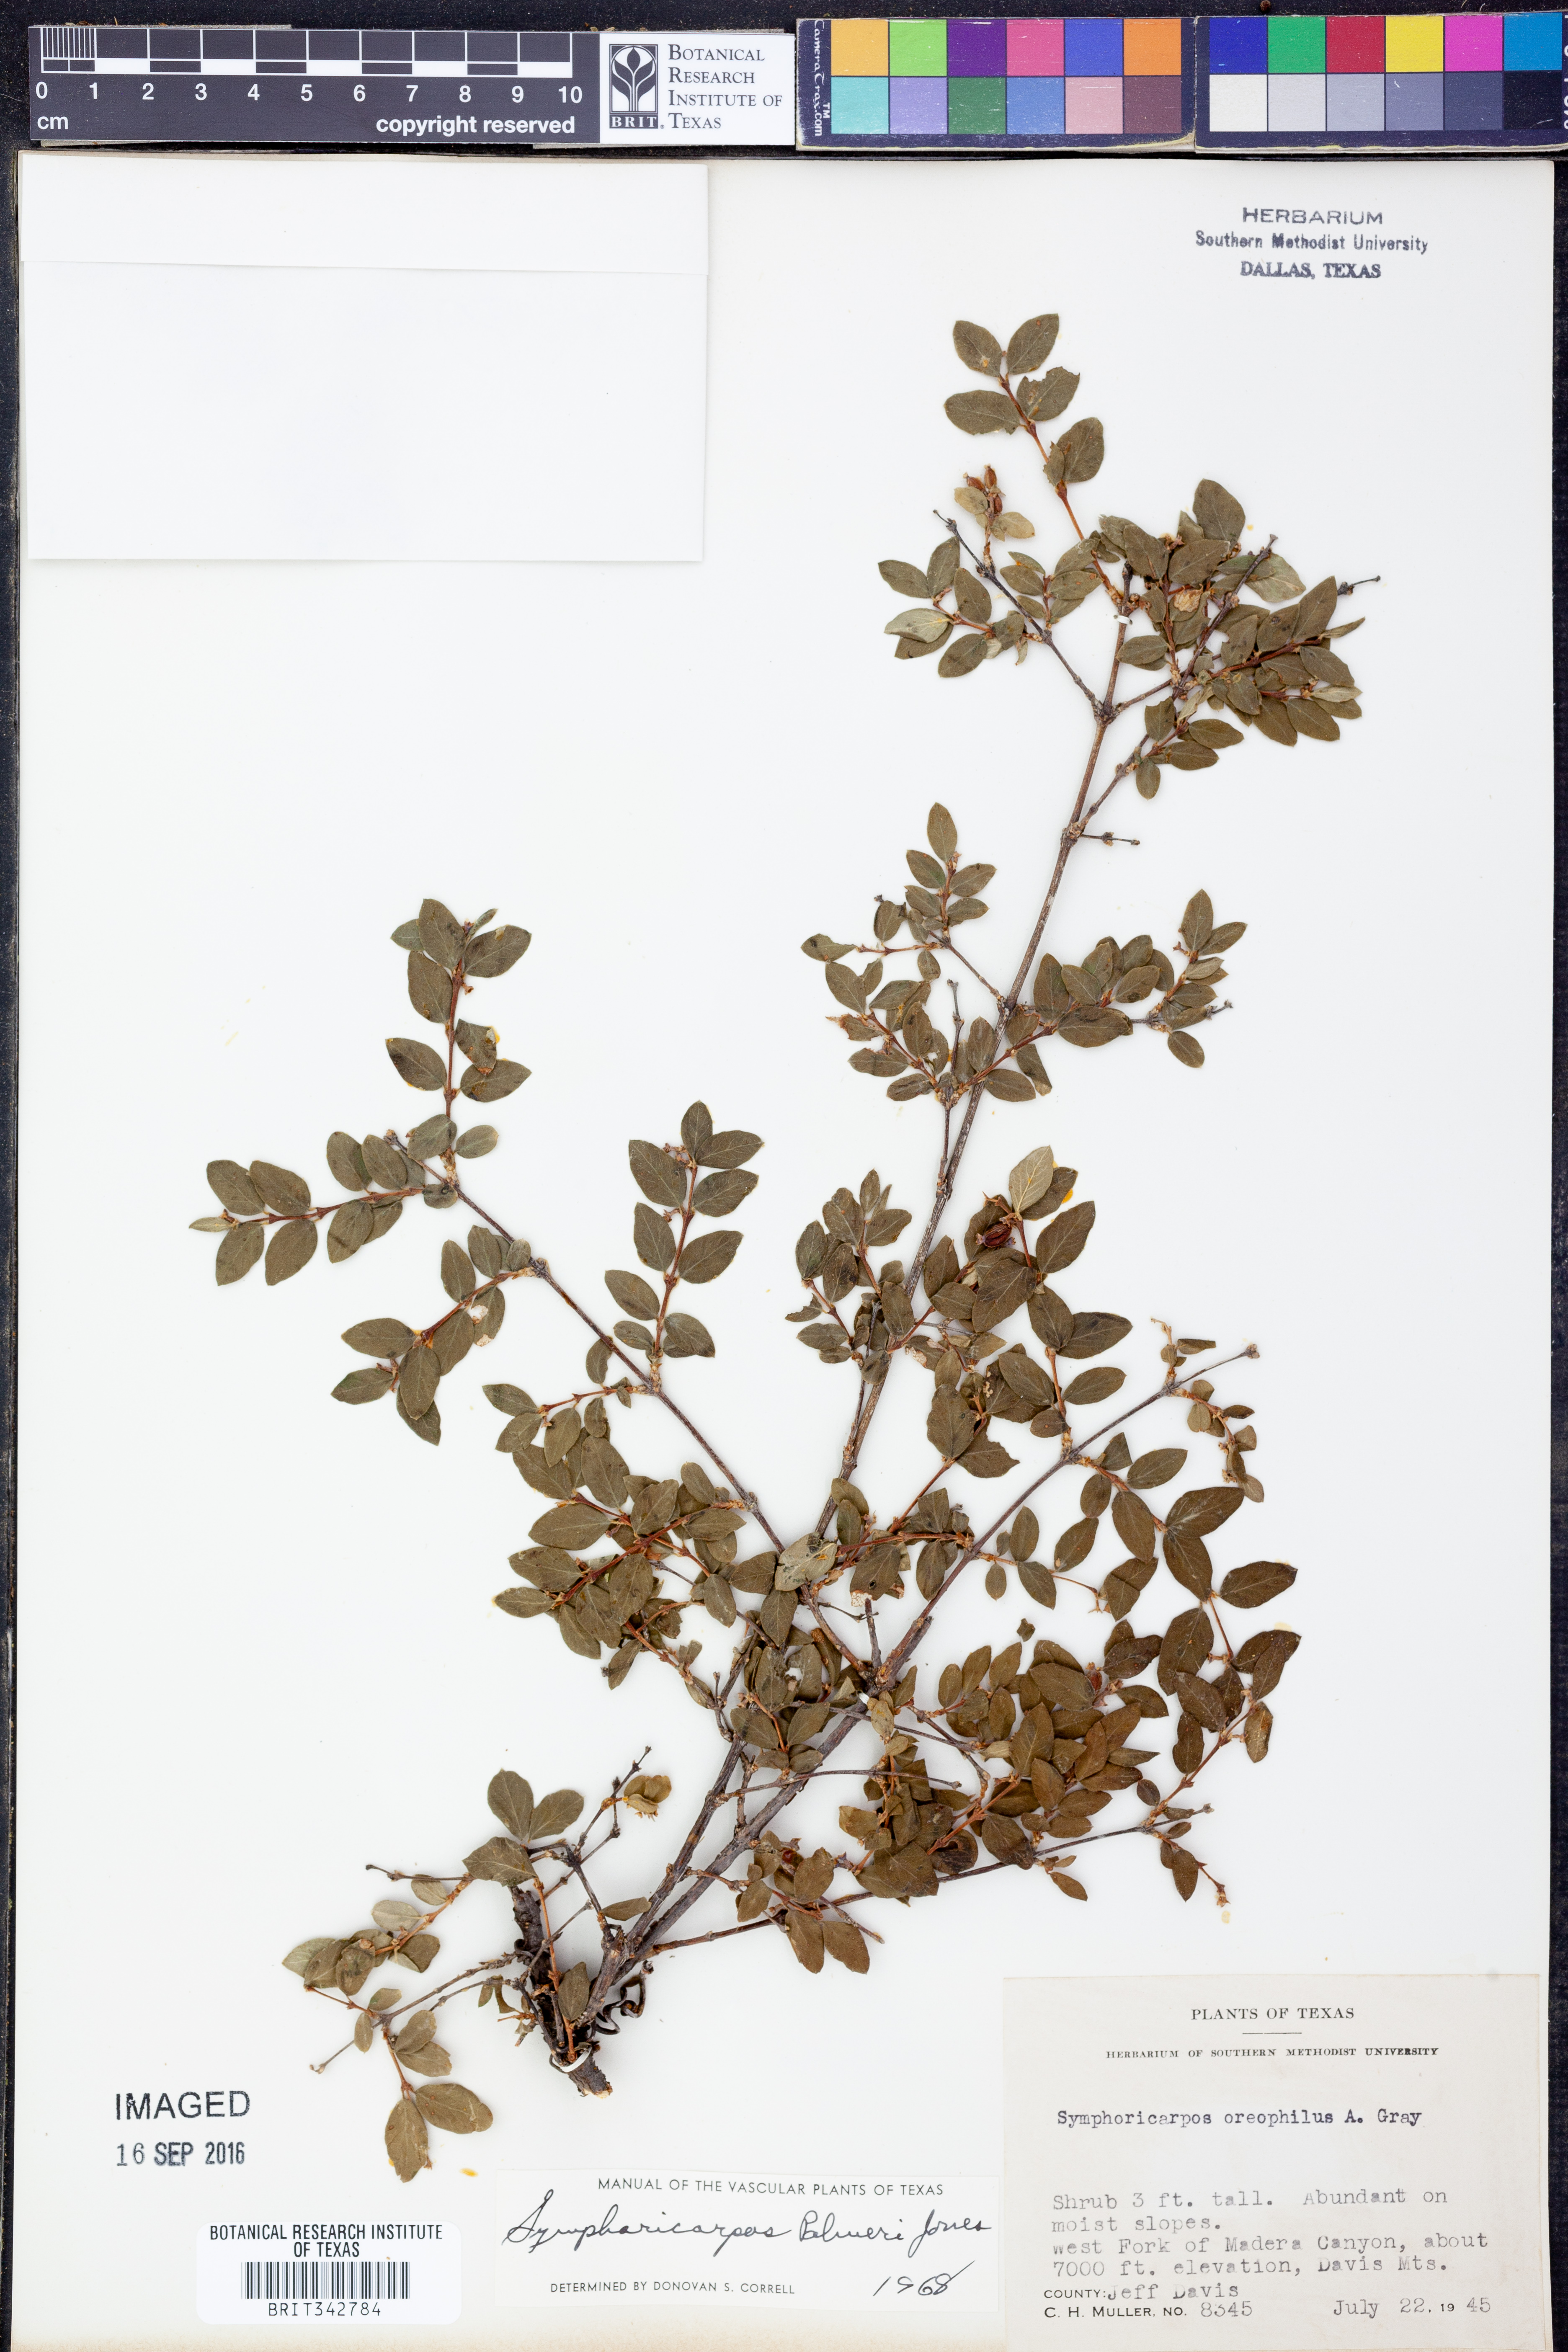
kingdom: Plantae
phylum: Tracheophyta
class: Magnoliopsida
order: Dipsacales
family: Caprifoliaceae
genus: Symphoricarpos
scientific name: Symphoricarpos oreophilus
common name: Mountain snowberry
